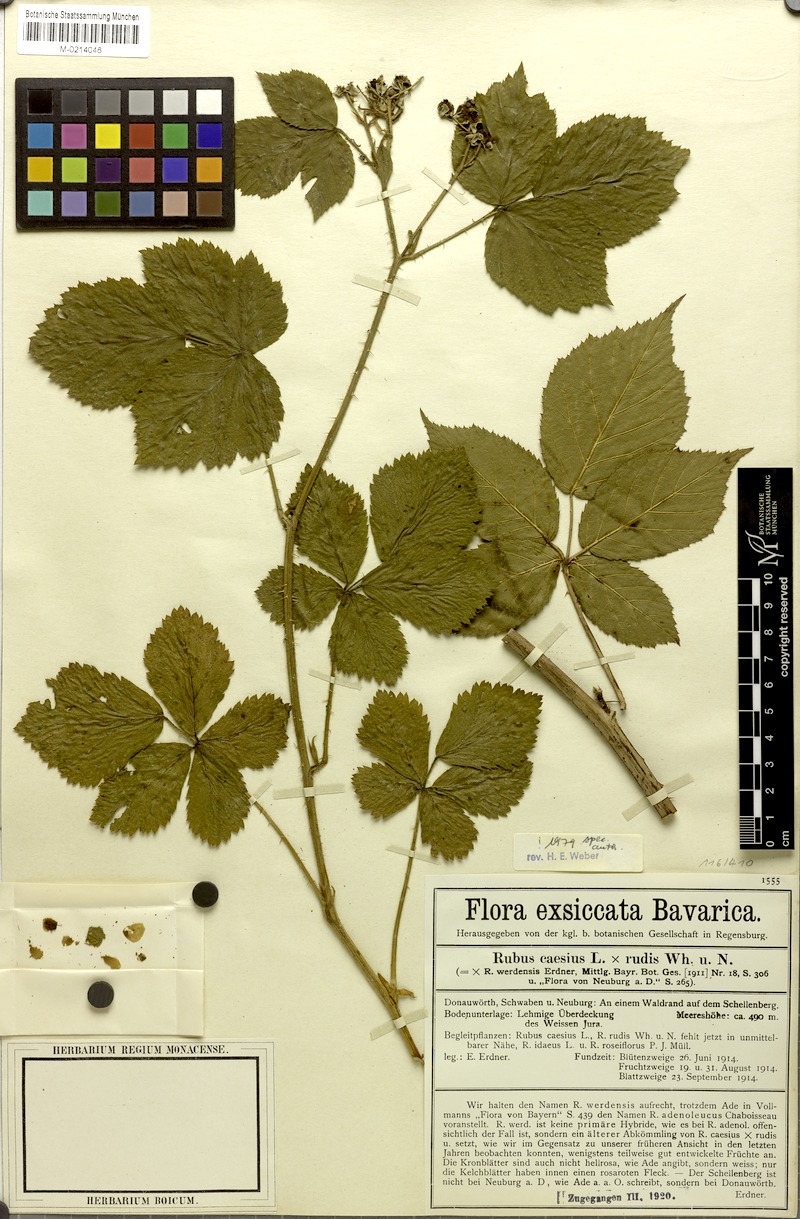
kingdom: Plantae
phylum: Tracheophyta
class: Magnoliopsida
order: Rosales
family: Rosaceae
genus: Rubus
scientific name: Rubus werdensis
